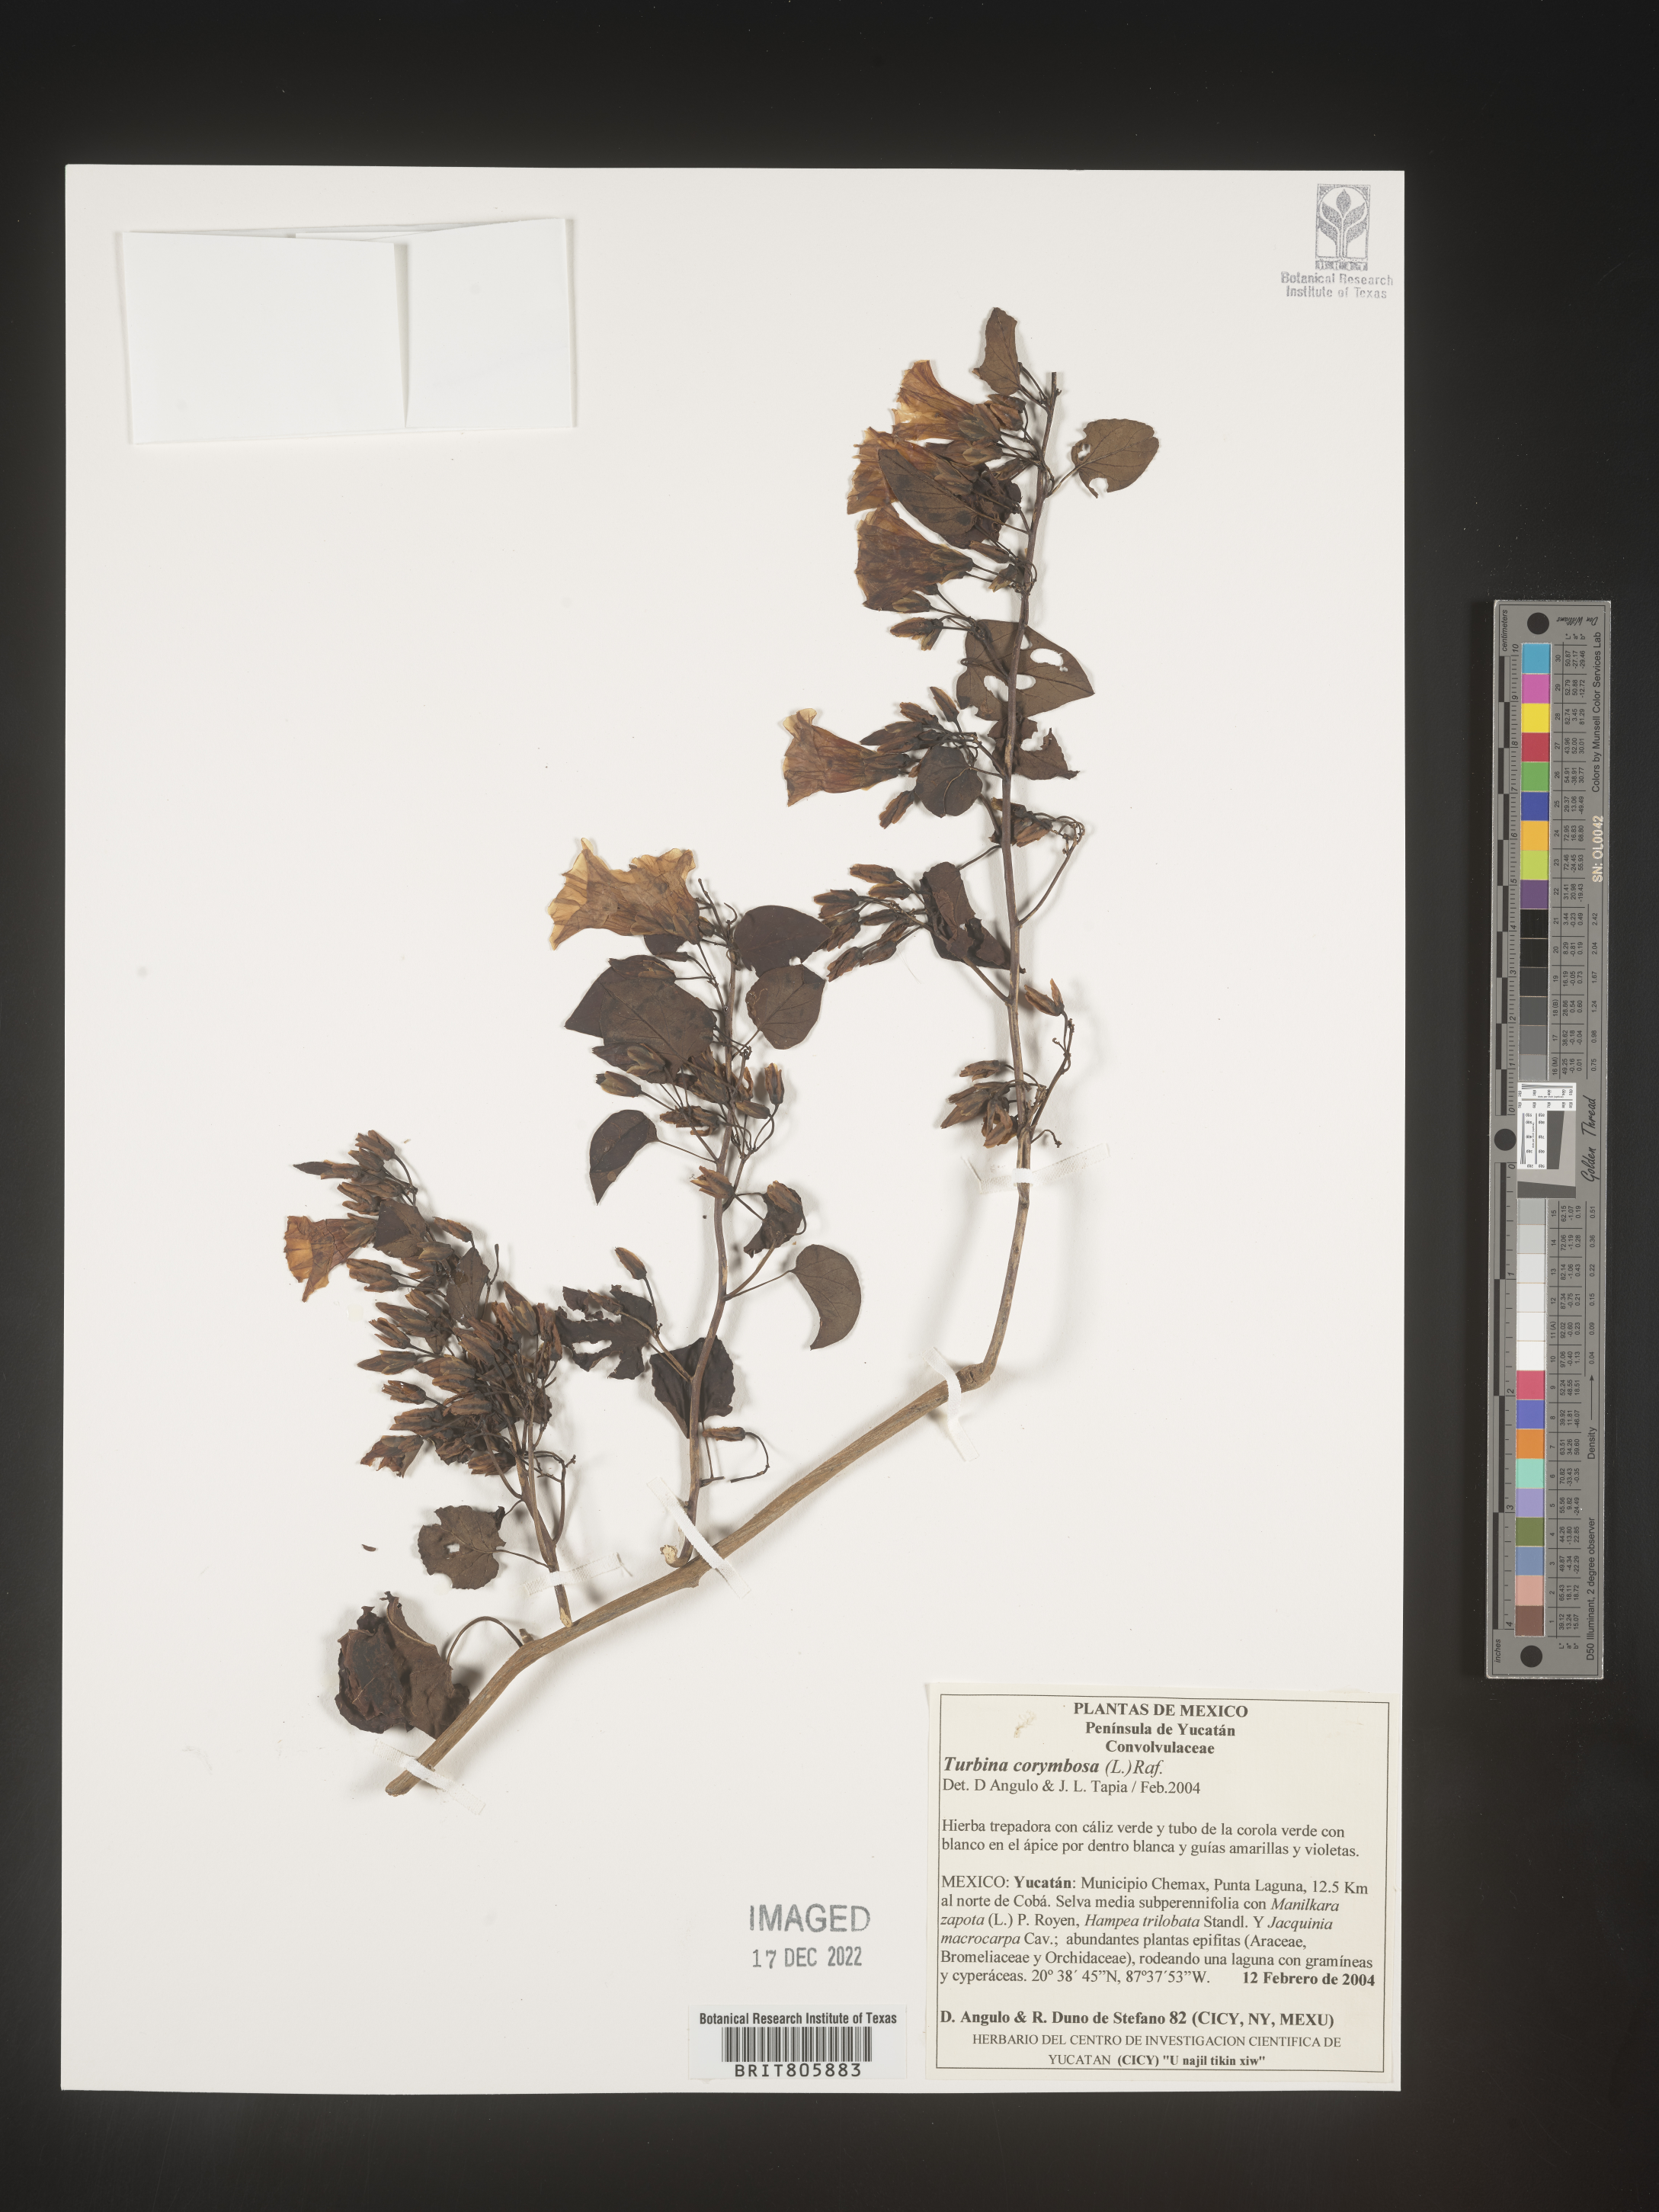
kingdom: Animalia
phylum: Mollusca
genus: Turbina
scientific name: Turbina
